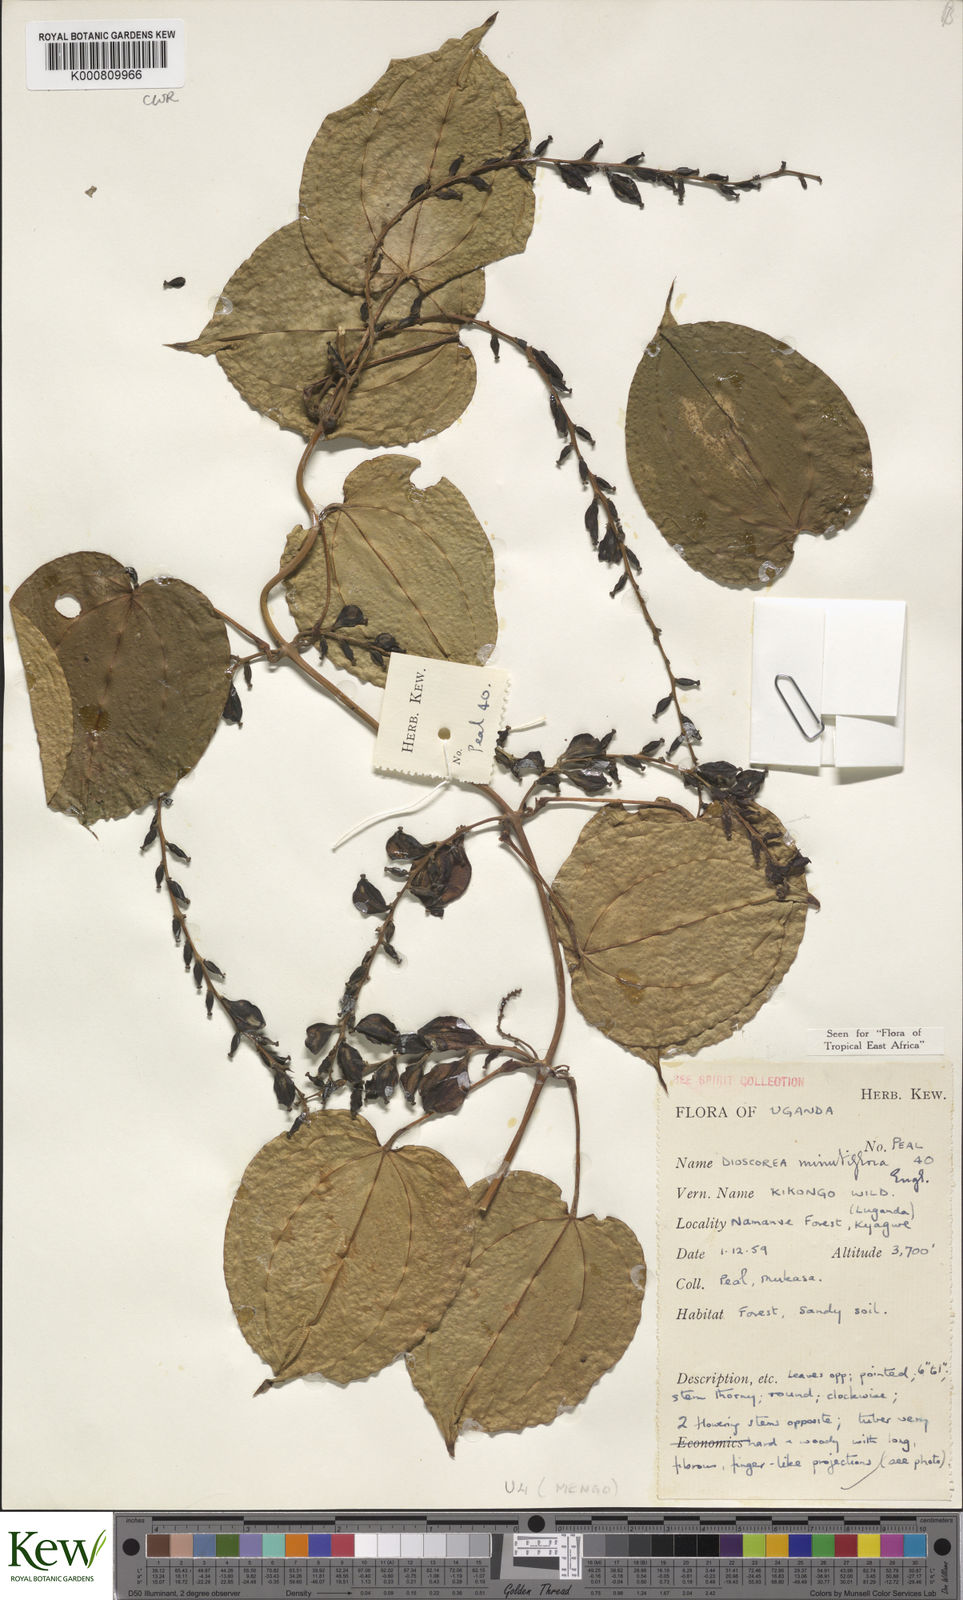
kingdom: Plantae
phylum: Tracheophyta
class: Liliopsida
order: Dioscoreales
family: Dioscoreaceae
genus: Dioscorea
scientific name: Dioscorea minutiflora
